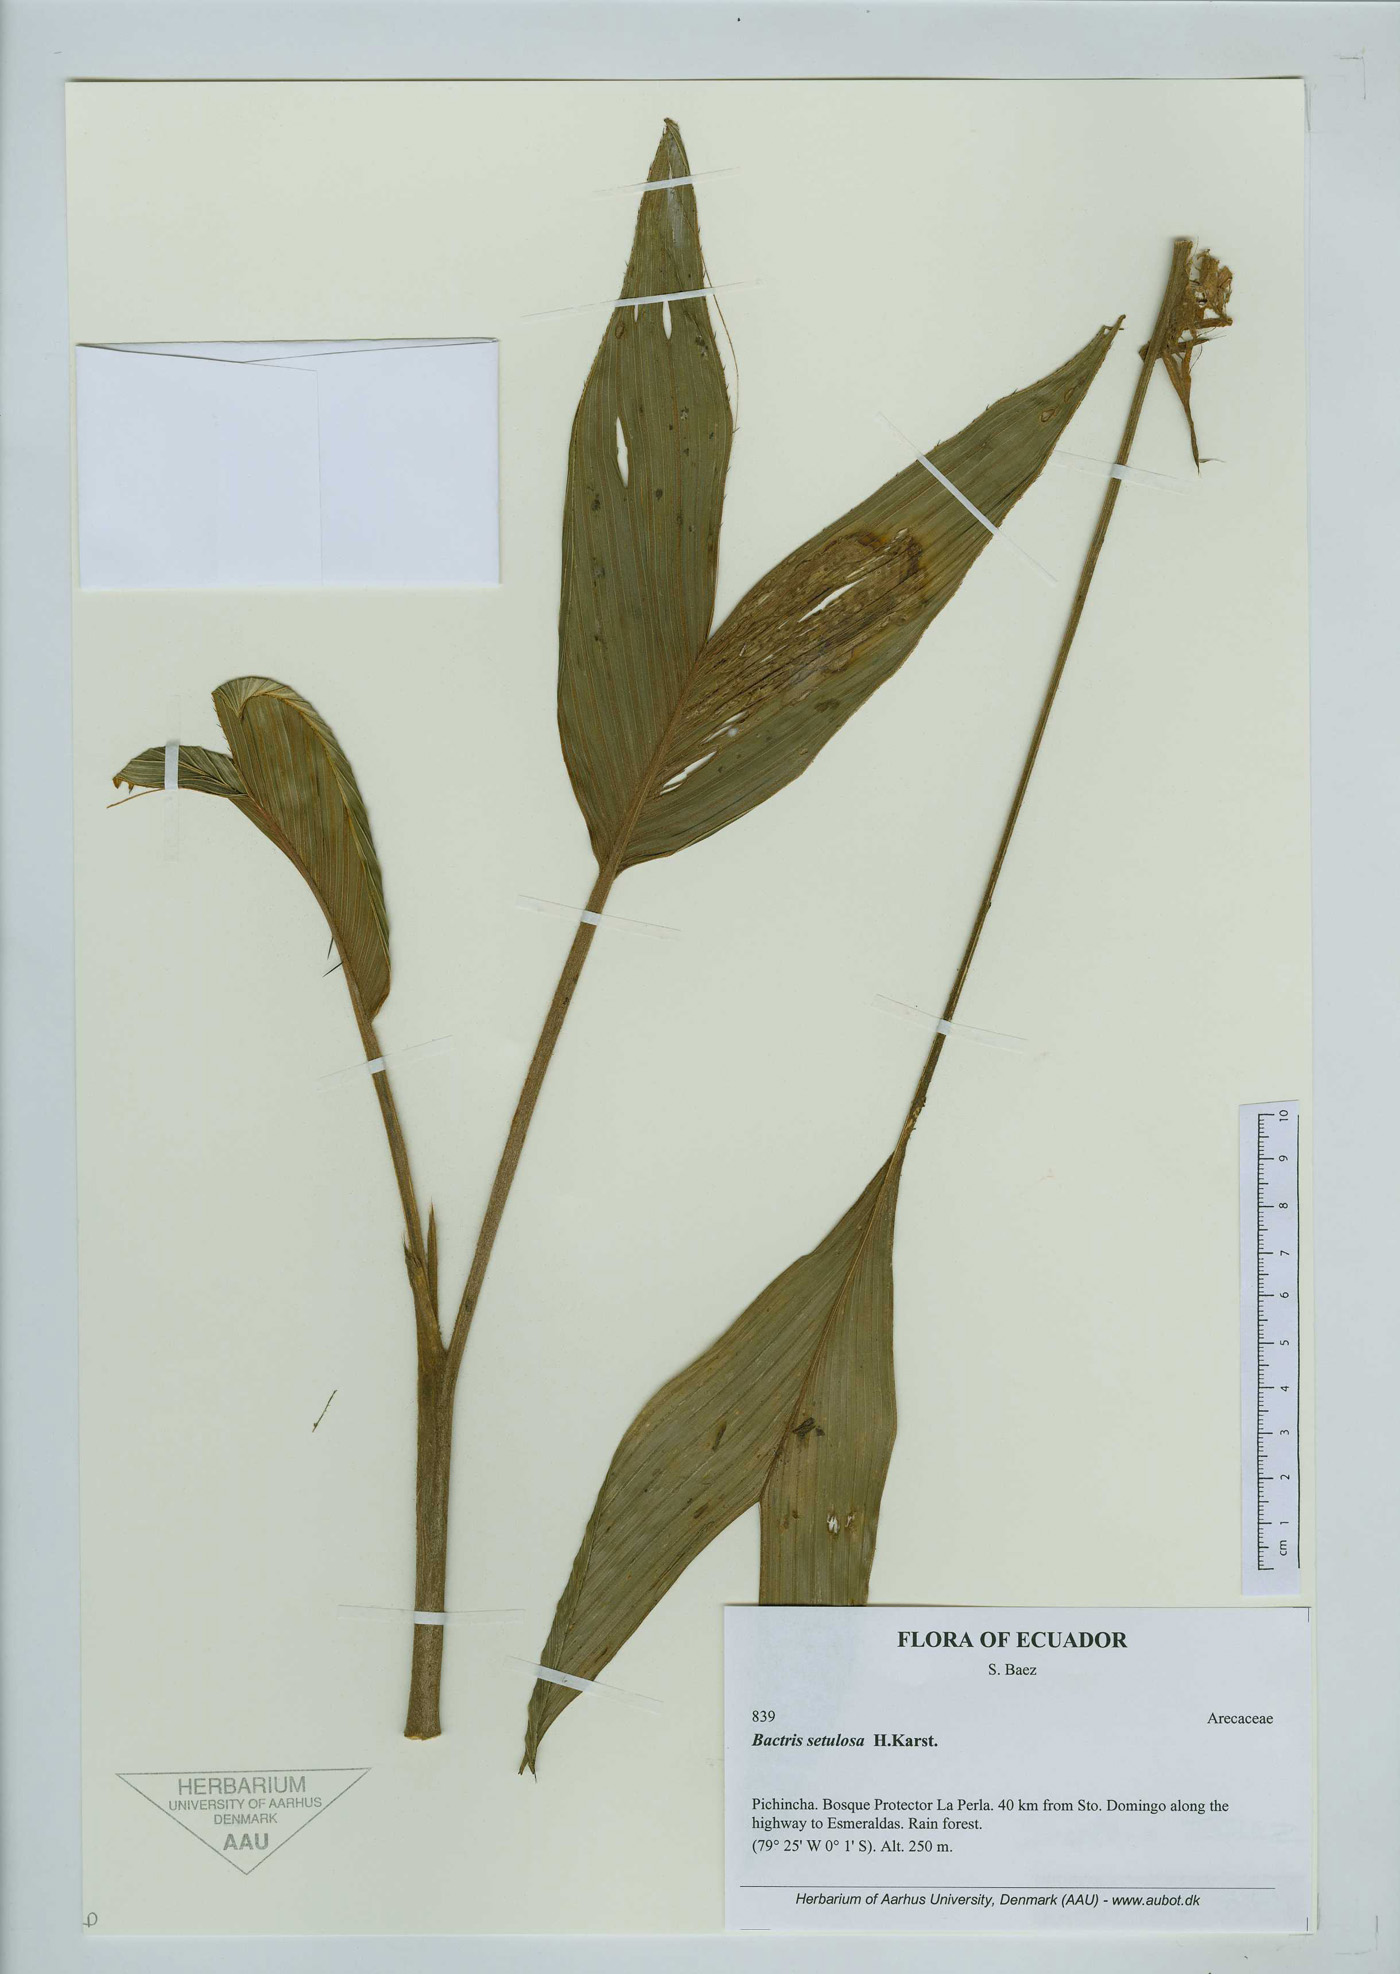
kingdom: Plantae
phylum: Tracheophyta
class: Liliopsida
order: Arecales
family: Arecaceae
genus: Bactris
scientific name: Bactris setulosa
